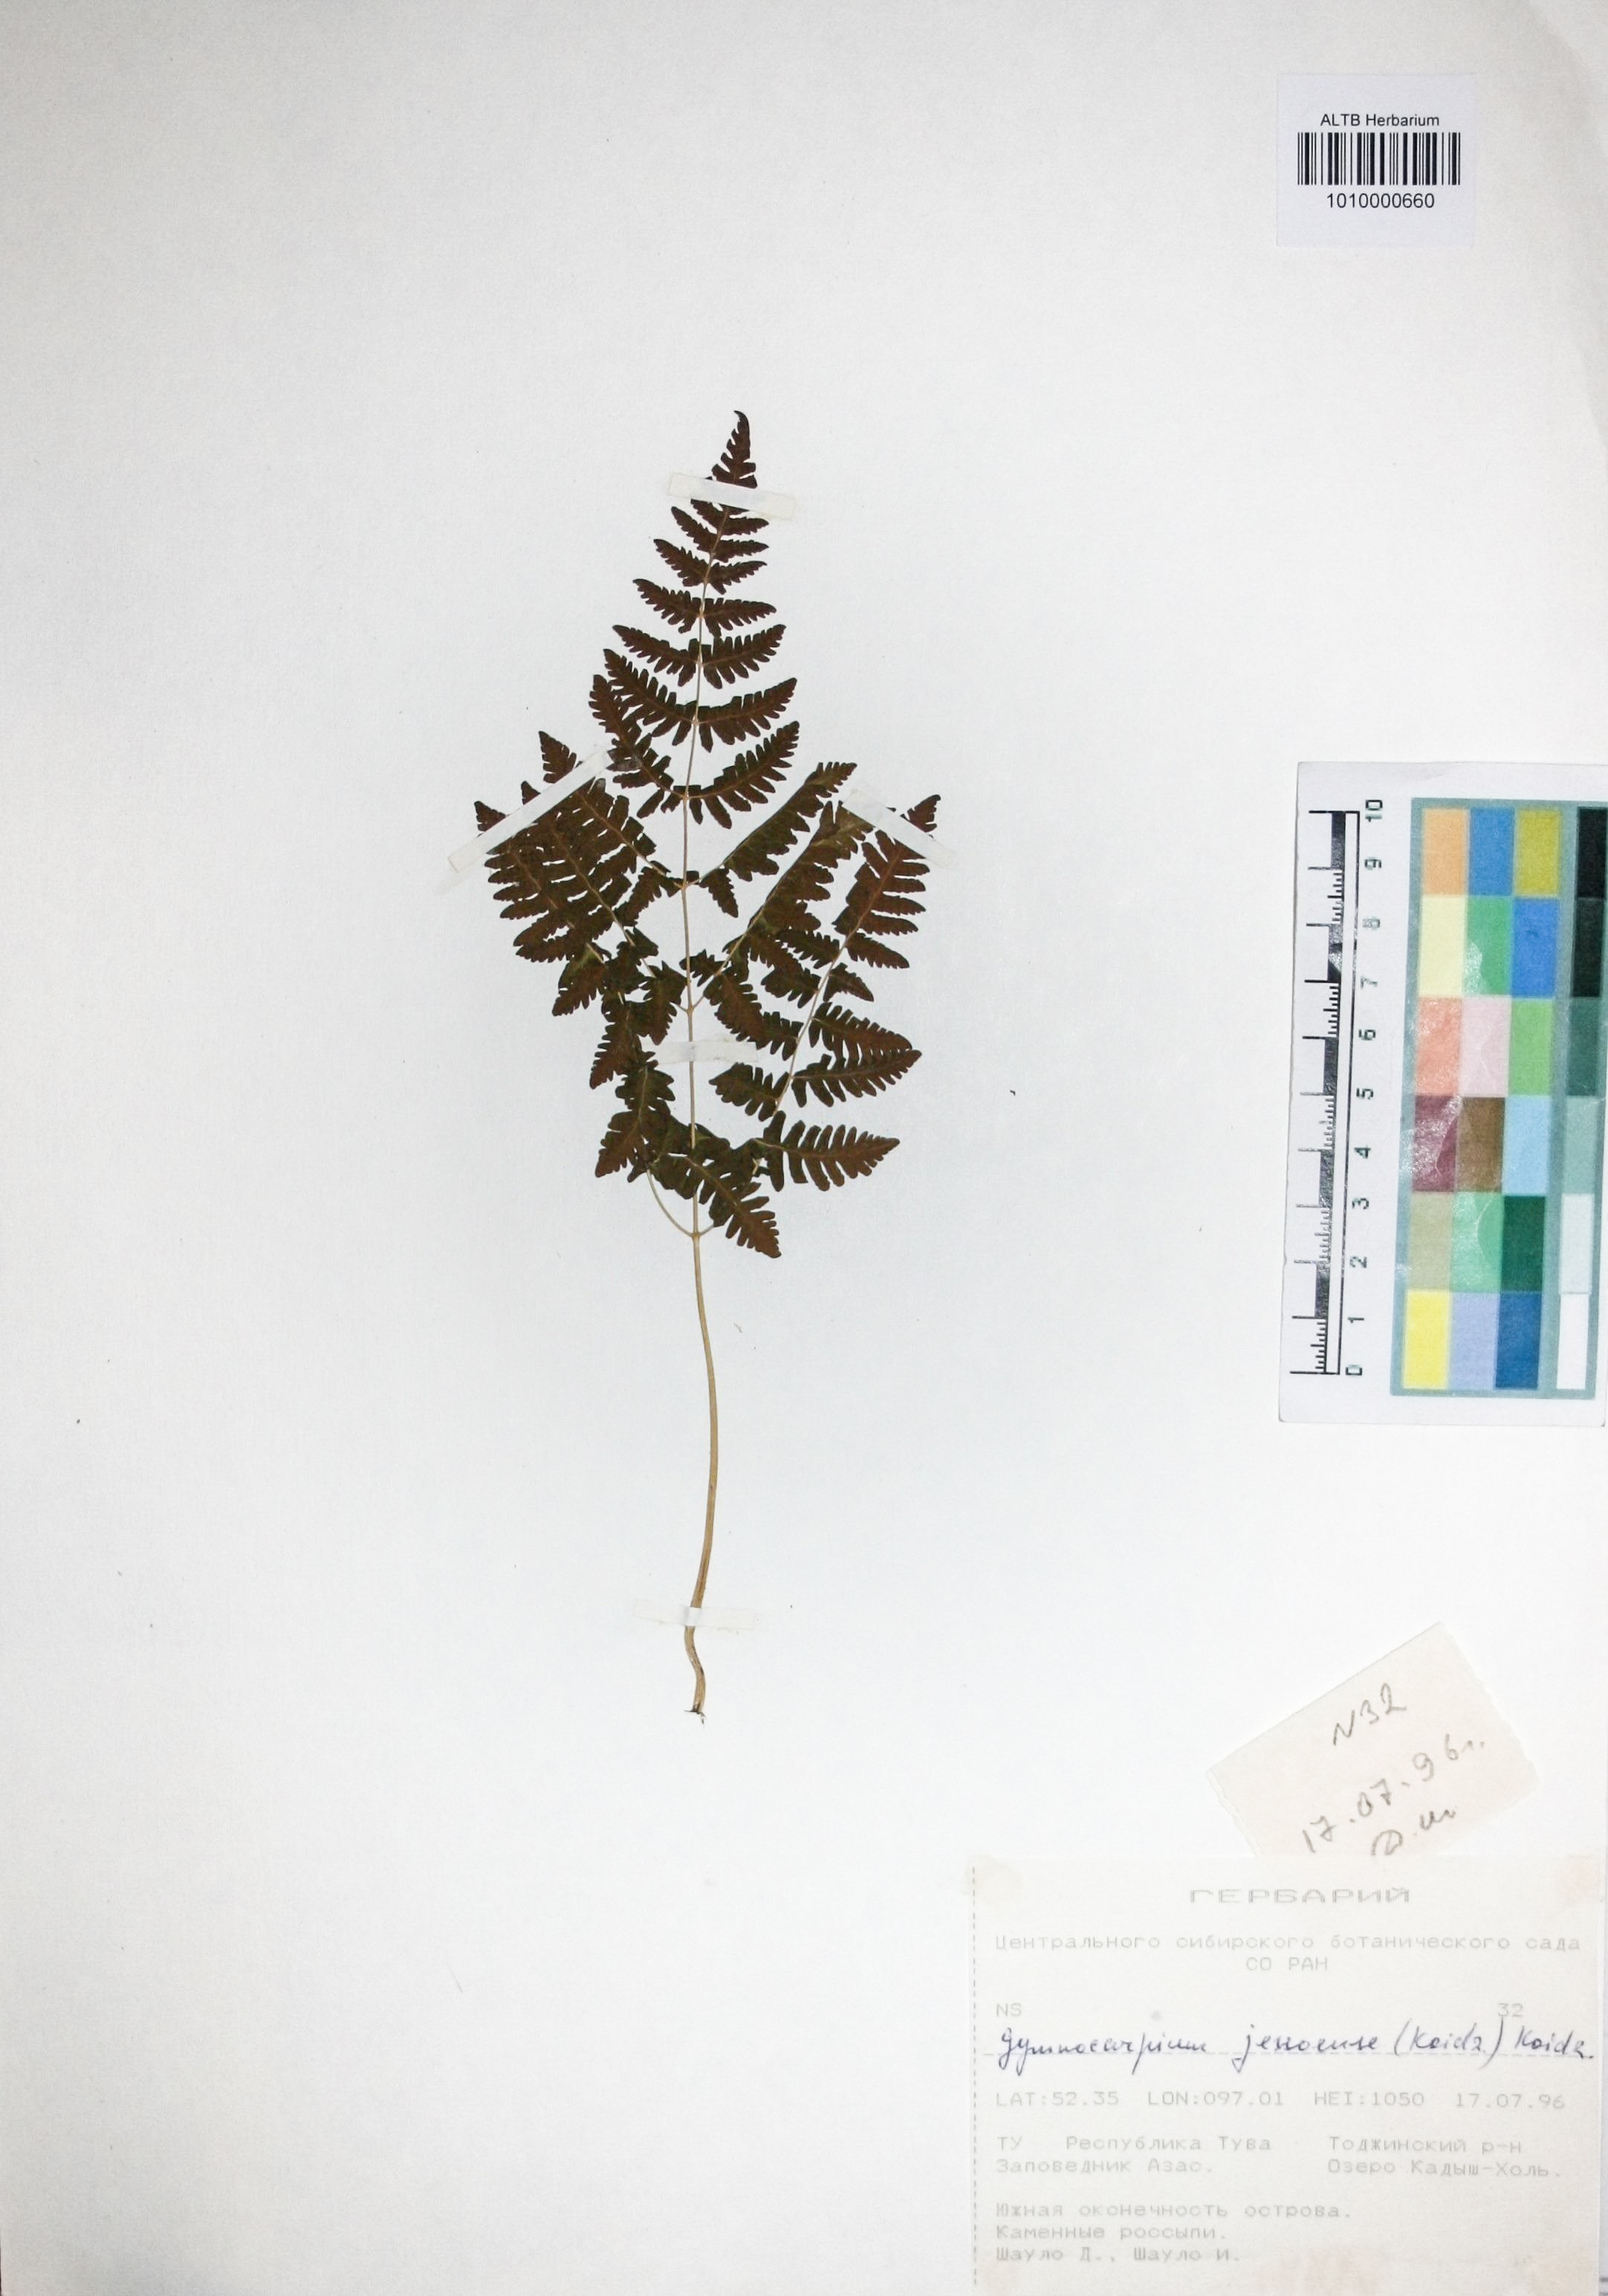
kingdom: Plantae
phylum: Tracheophyta
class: Polypodiopsida
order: Polypodiales
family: Cystopteridaceae
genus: Gymnocarpium
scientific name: Gymnocarpium jessoense
